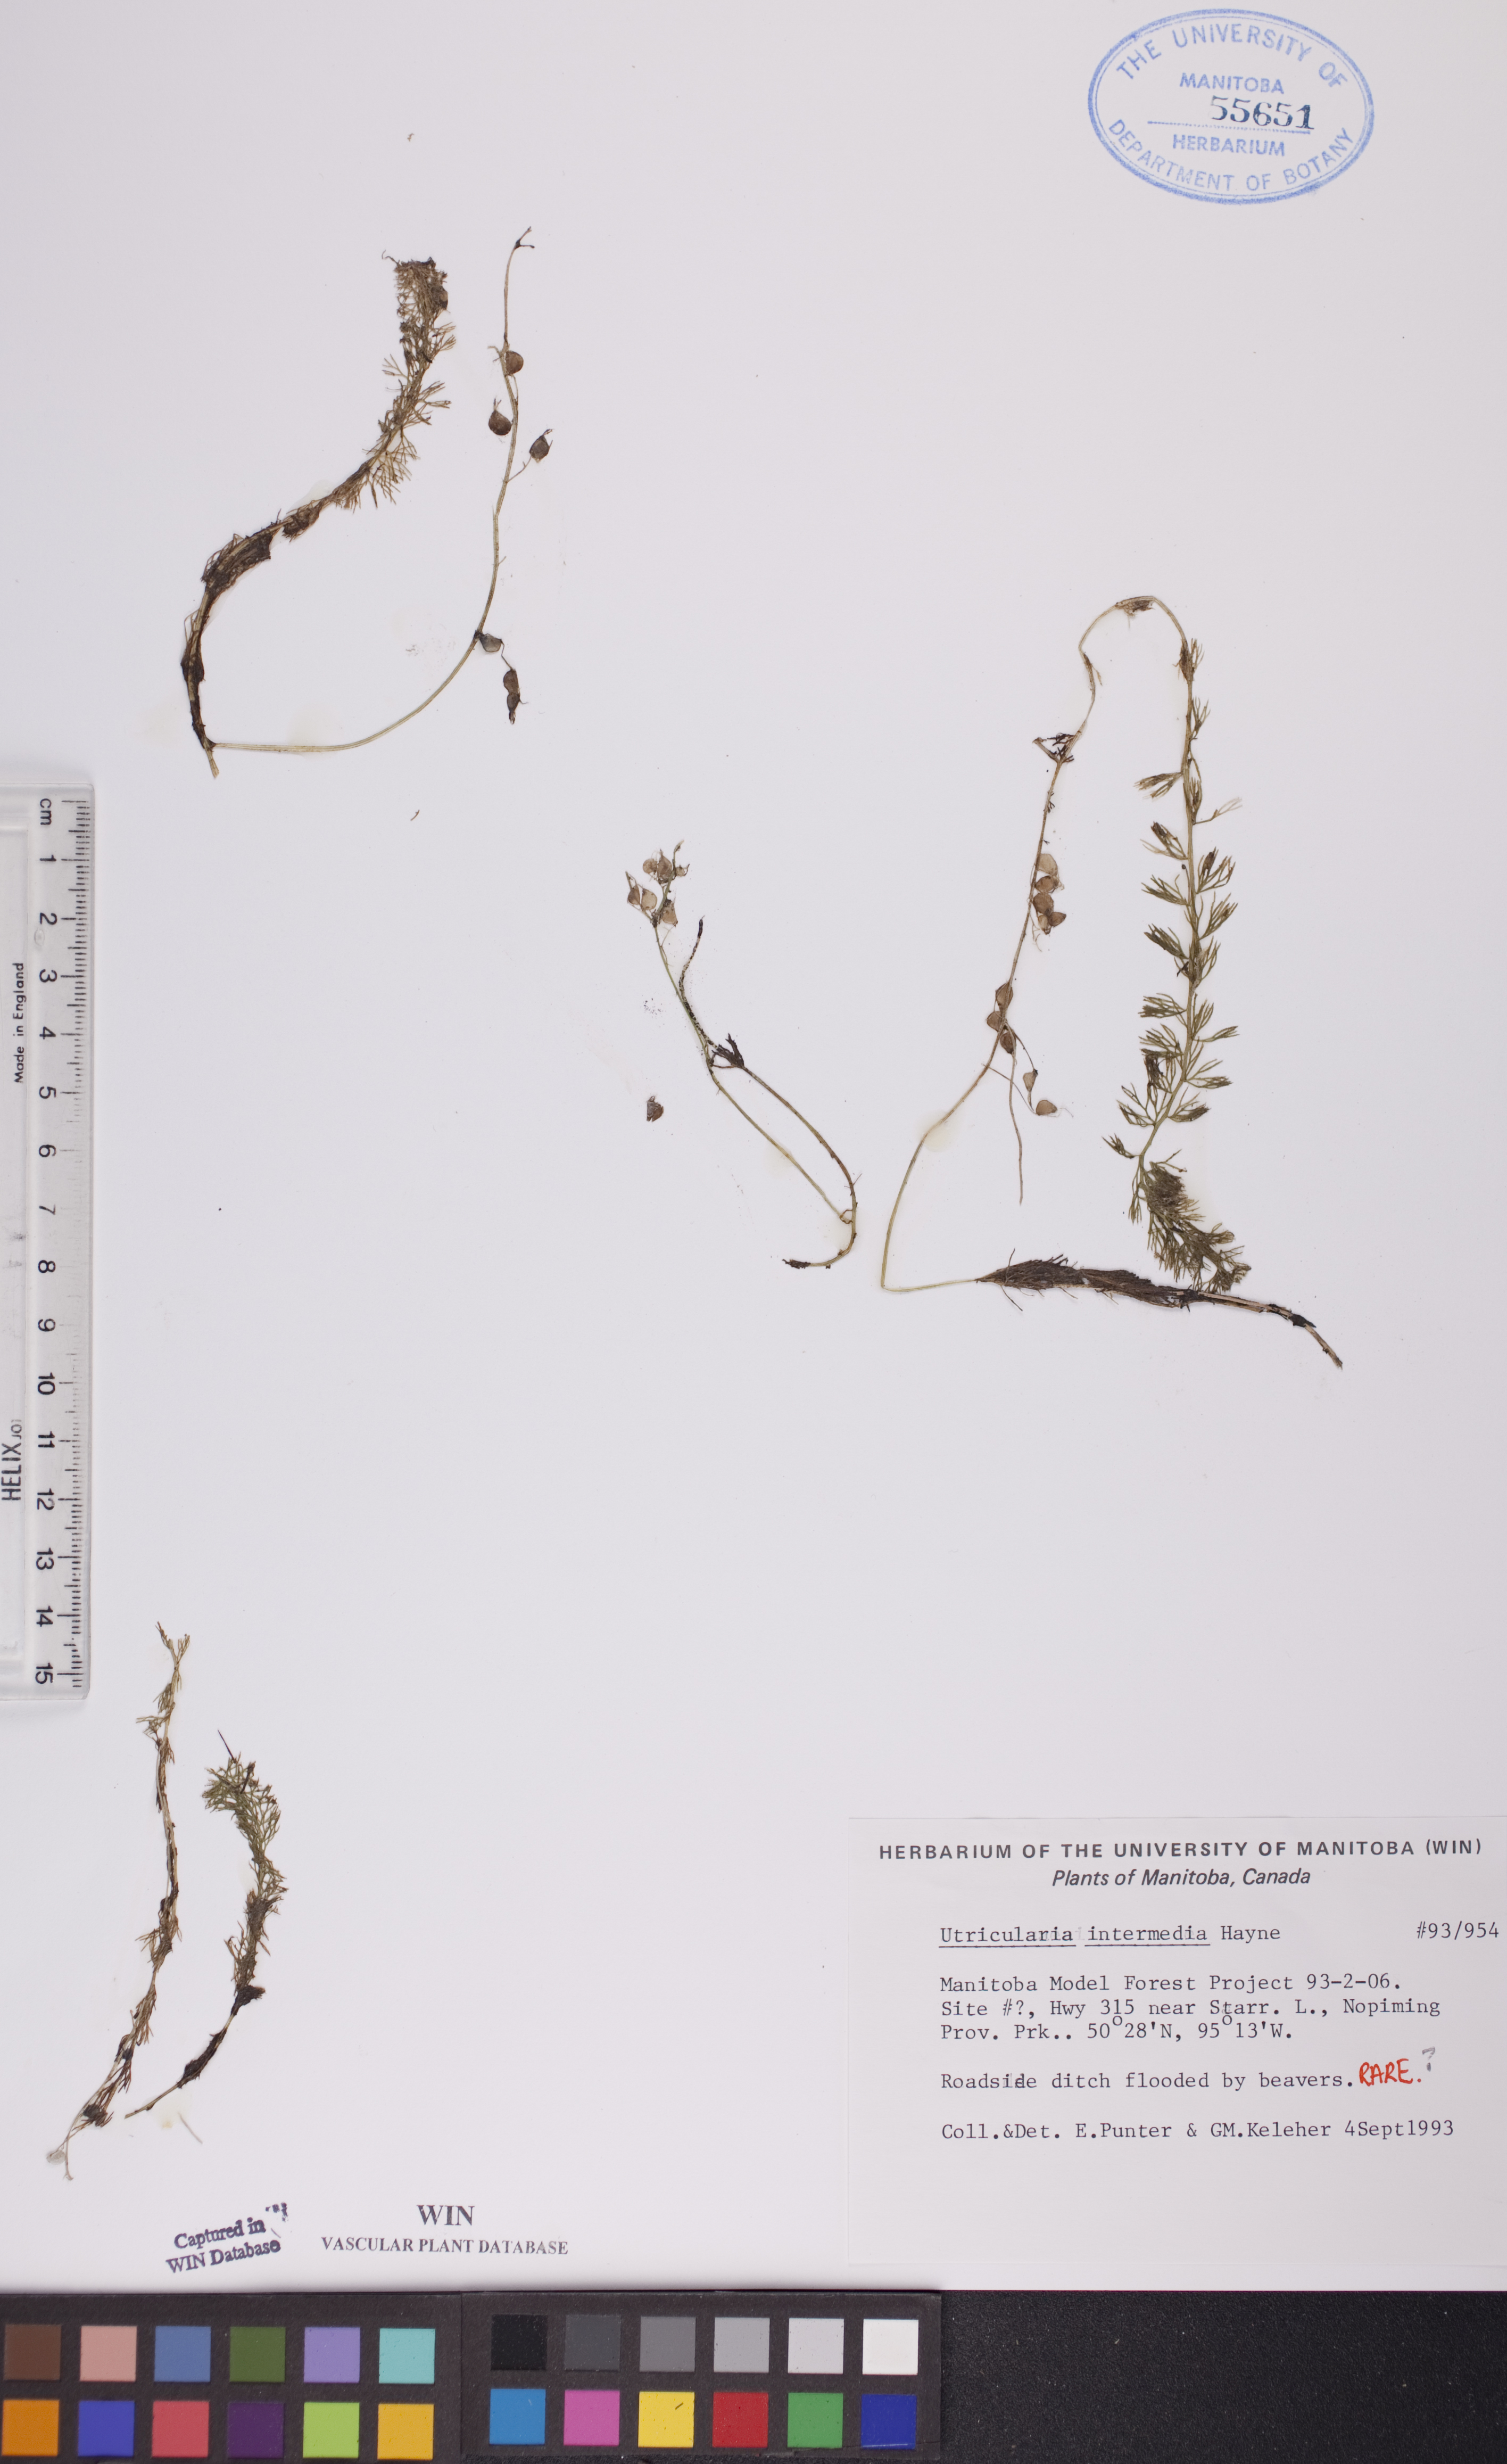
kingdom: Plantae
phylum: Tracheophyta
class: Magnoliopsida
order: Lamiales
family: Lentibulariaceae
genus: Utricularia
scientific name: Utricularia intermedia
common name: Intermediate bladderwort
